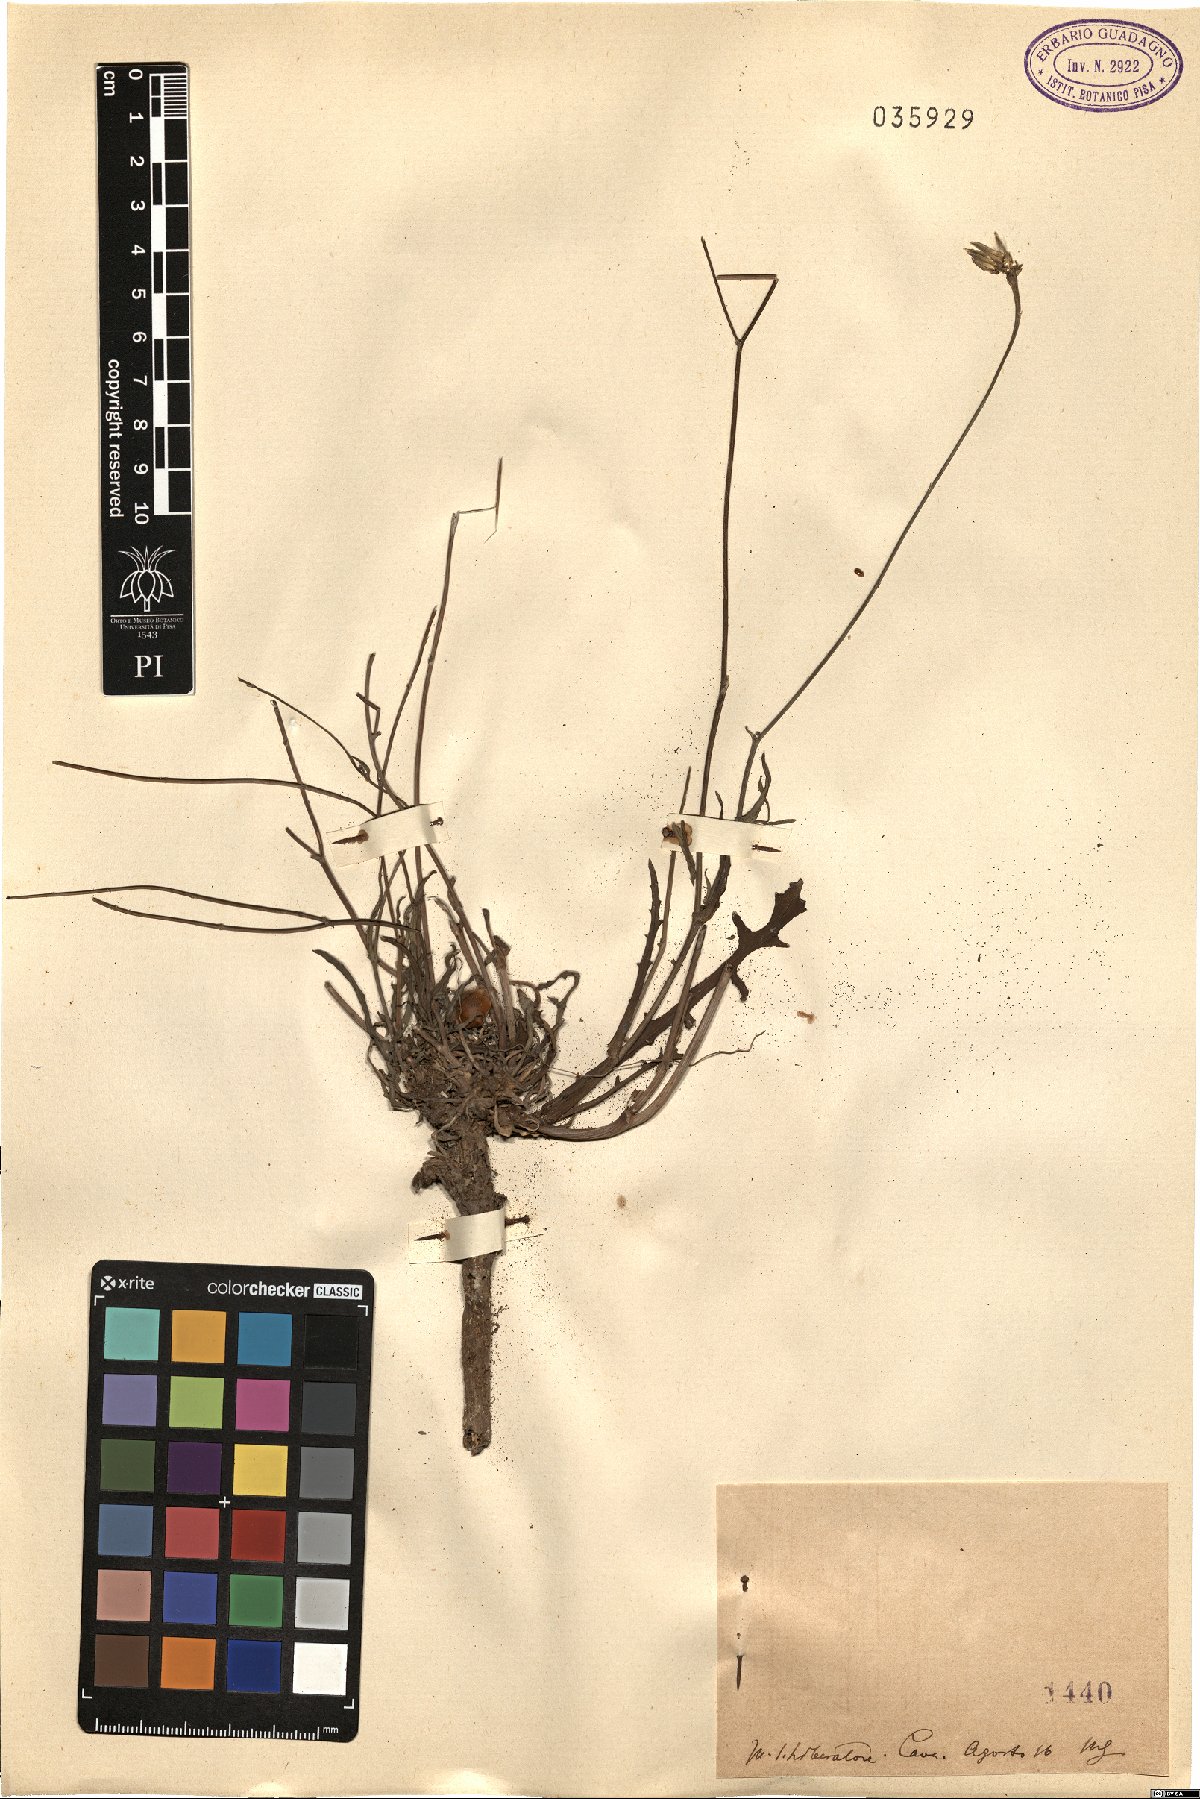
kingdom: Plantae
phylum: Tracheophyta
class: Magnoliopsida
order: Asterales
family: Asteraceae
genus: Reichardia
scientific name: Reichardia
